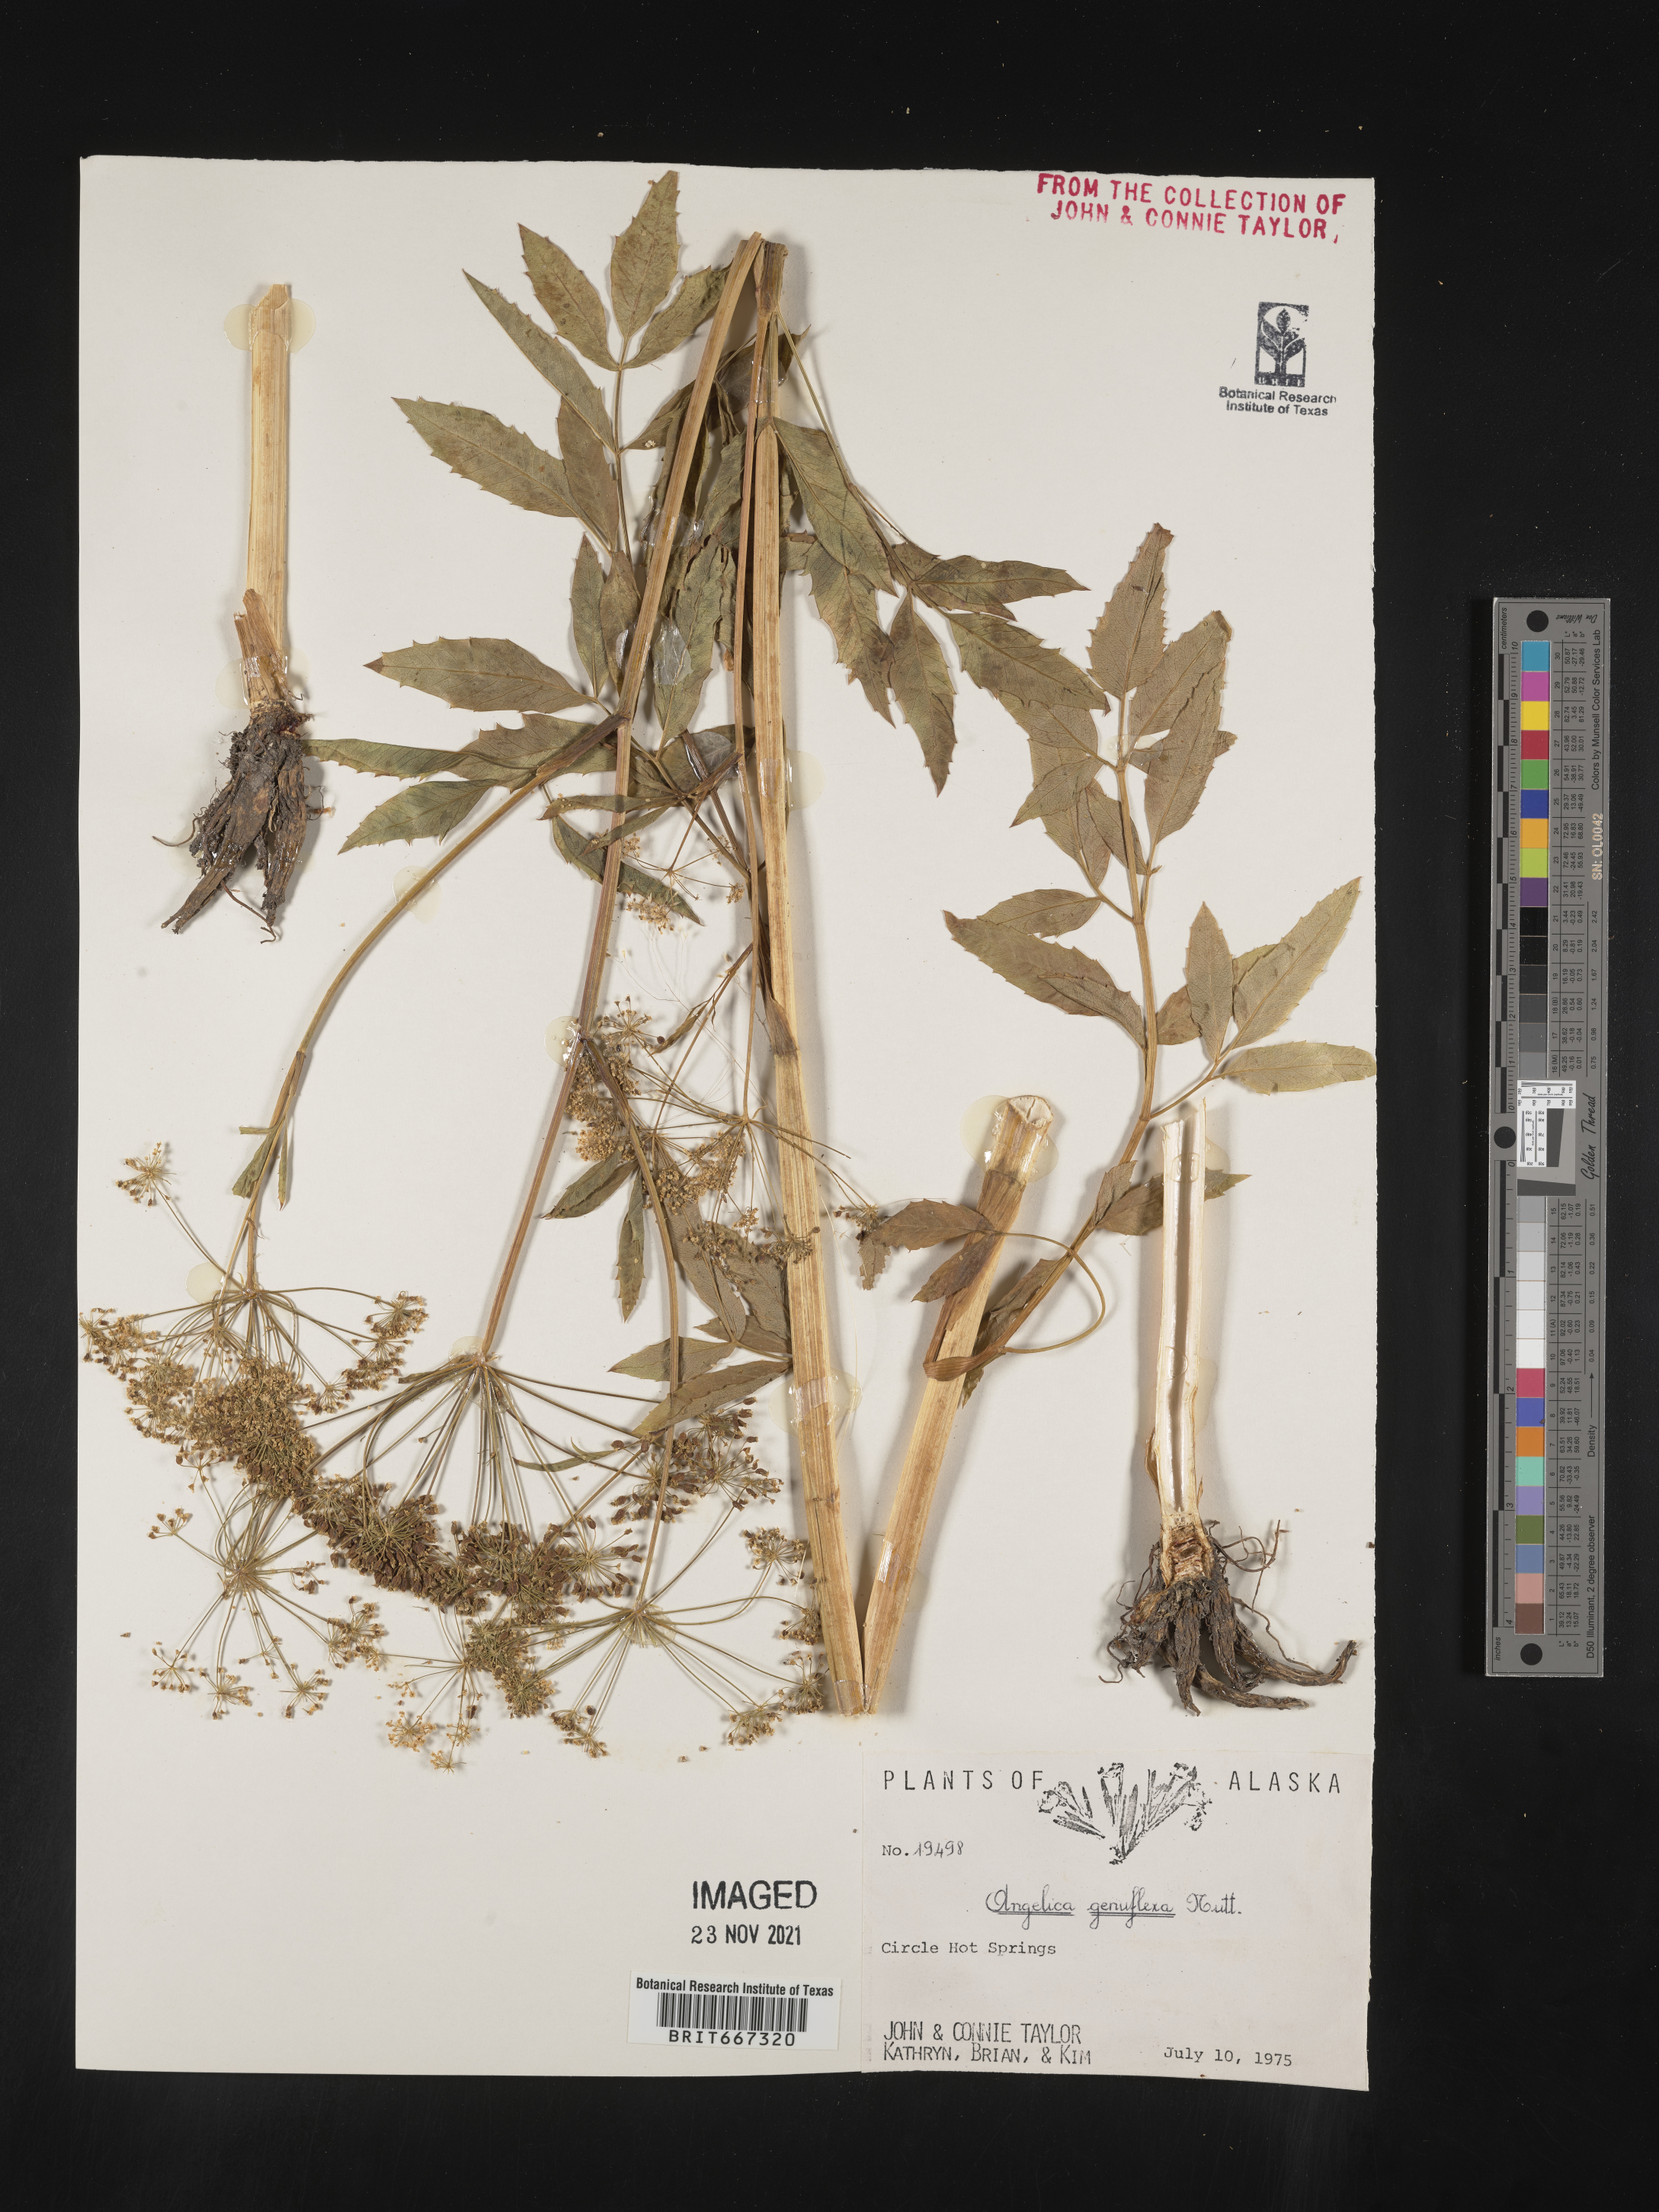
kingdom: Plantae
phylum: Tracheophyta
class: Magnoliopsida
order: Apiales
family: Apiaceae
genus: Angelica
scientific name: Angelica
